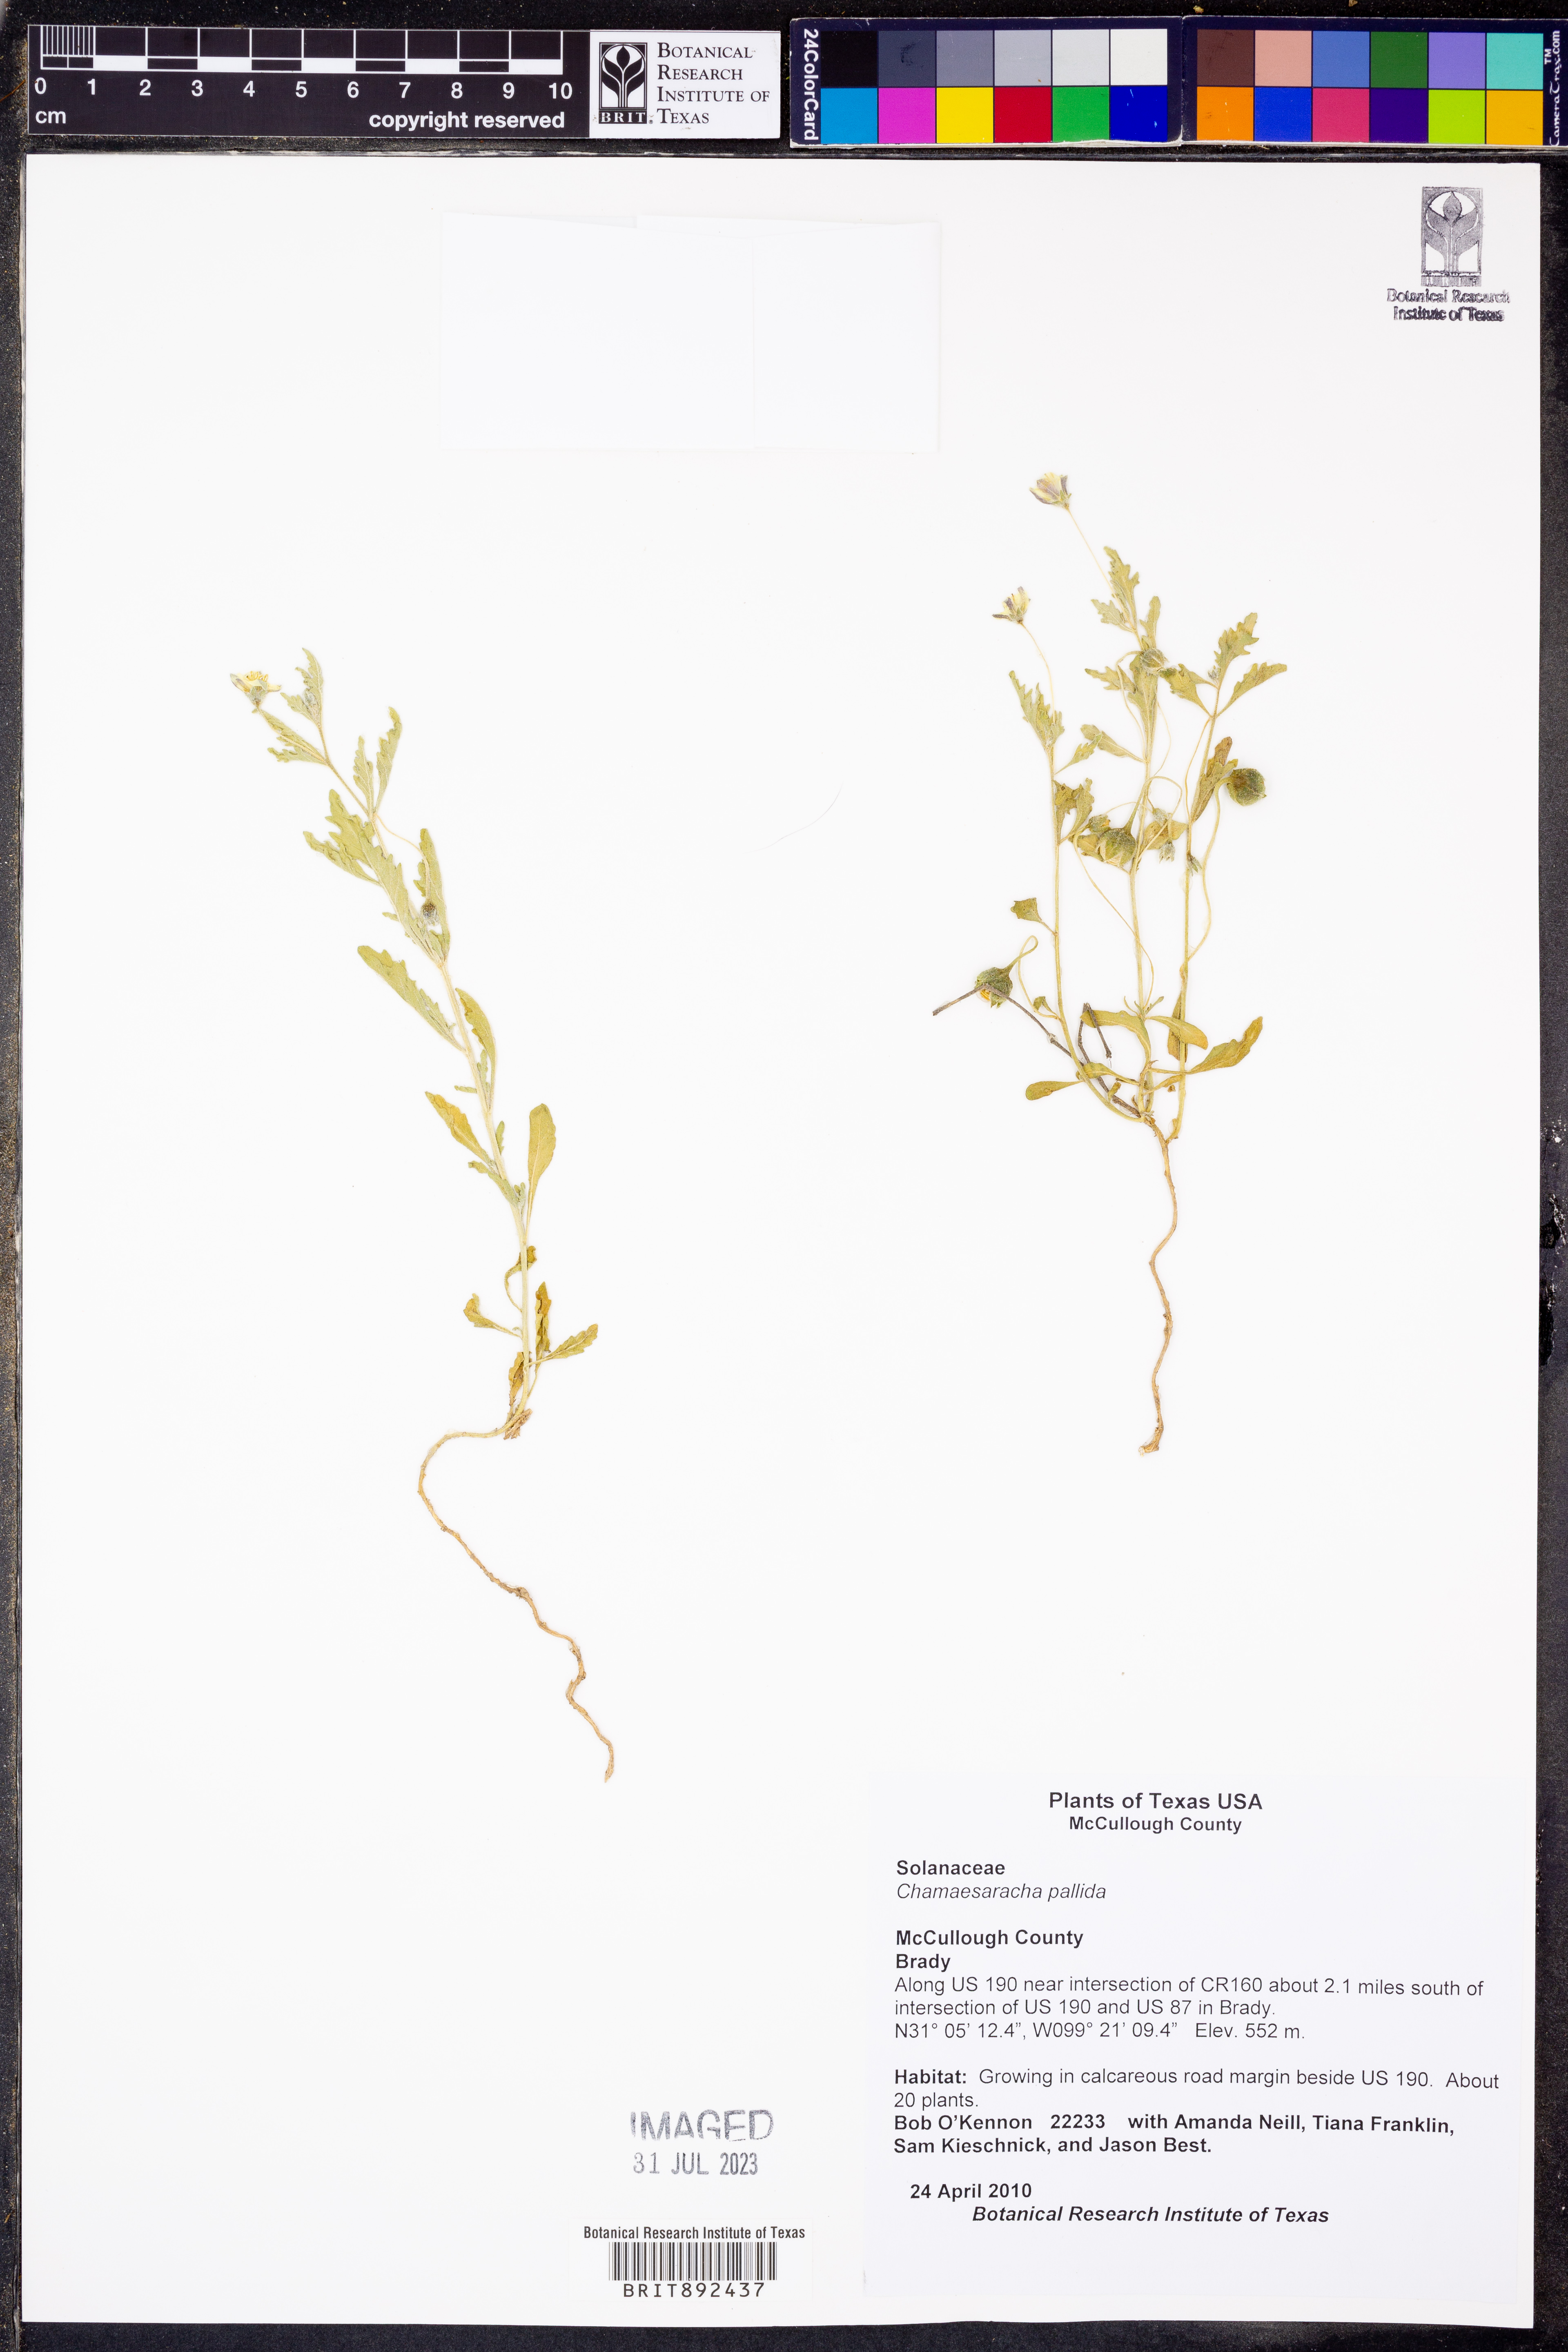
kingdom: Plantae
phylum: Tracheophyta
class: Magnoliopsida
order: Solanales
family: Solanaceae
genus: Chamaesaracha
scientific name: Chamaesaracha pallida
